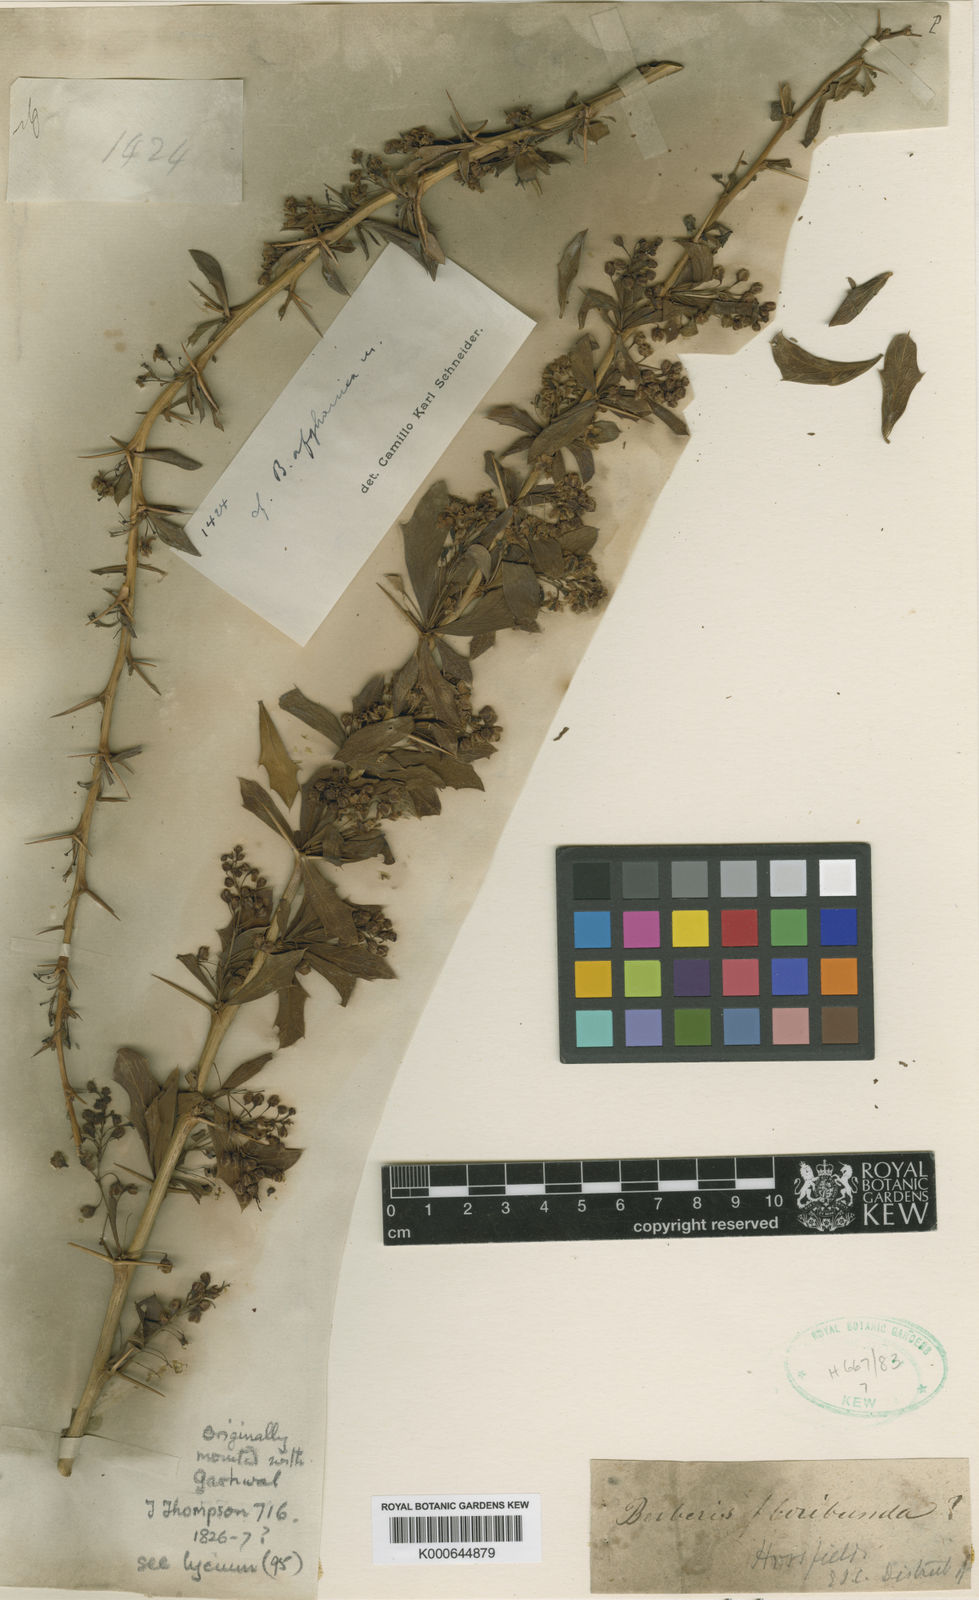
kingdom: Plantae
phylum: Tracheophyta
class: Magnoliopsida
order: Ranunculales
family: Berberidaceae
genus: Berberis
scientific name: Berberis lycium
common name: Boxthorn barberry
